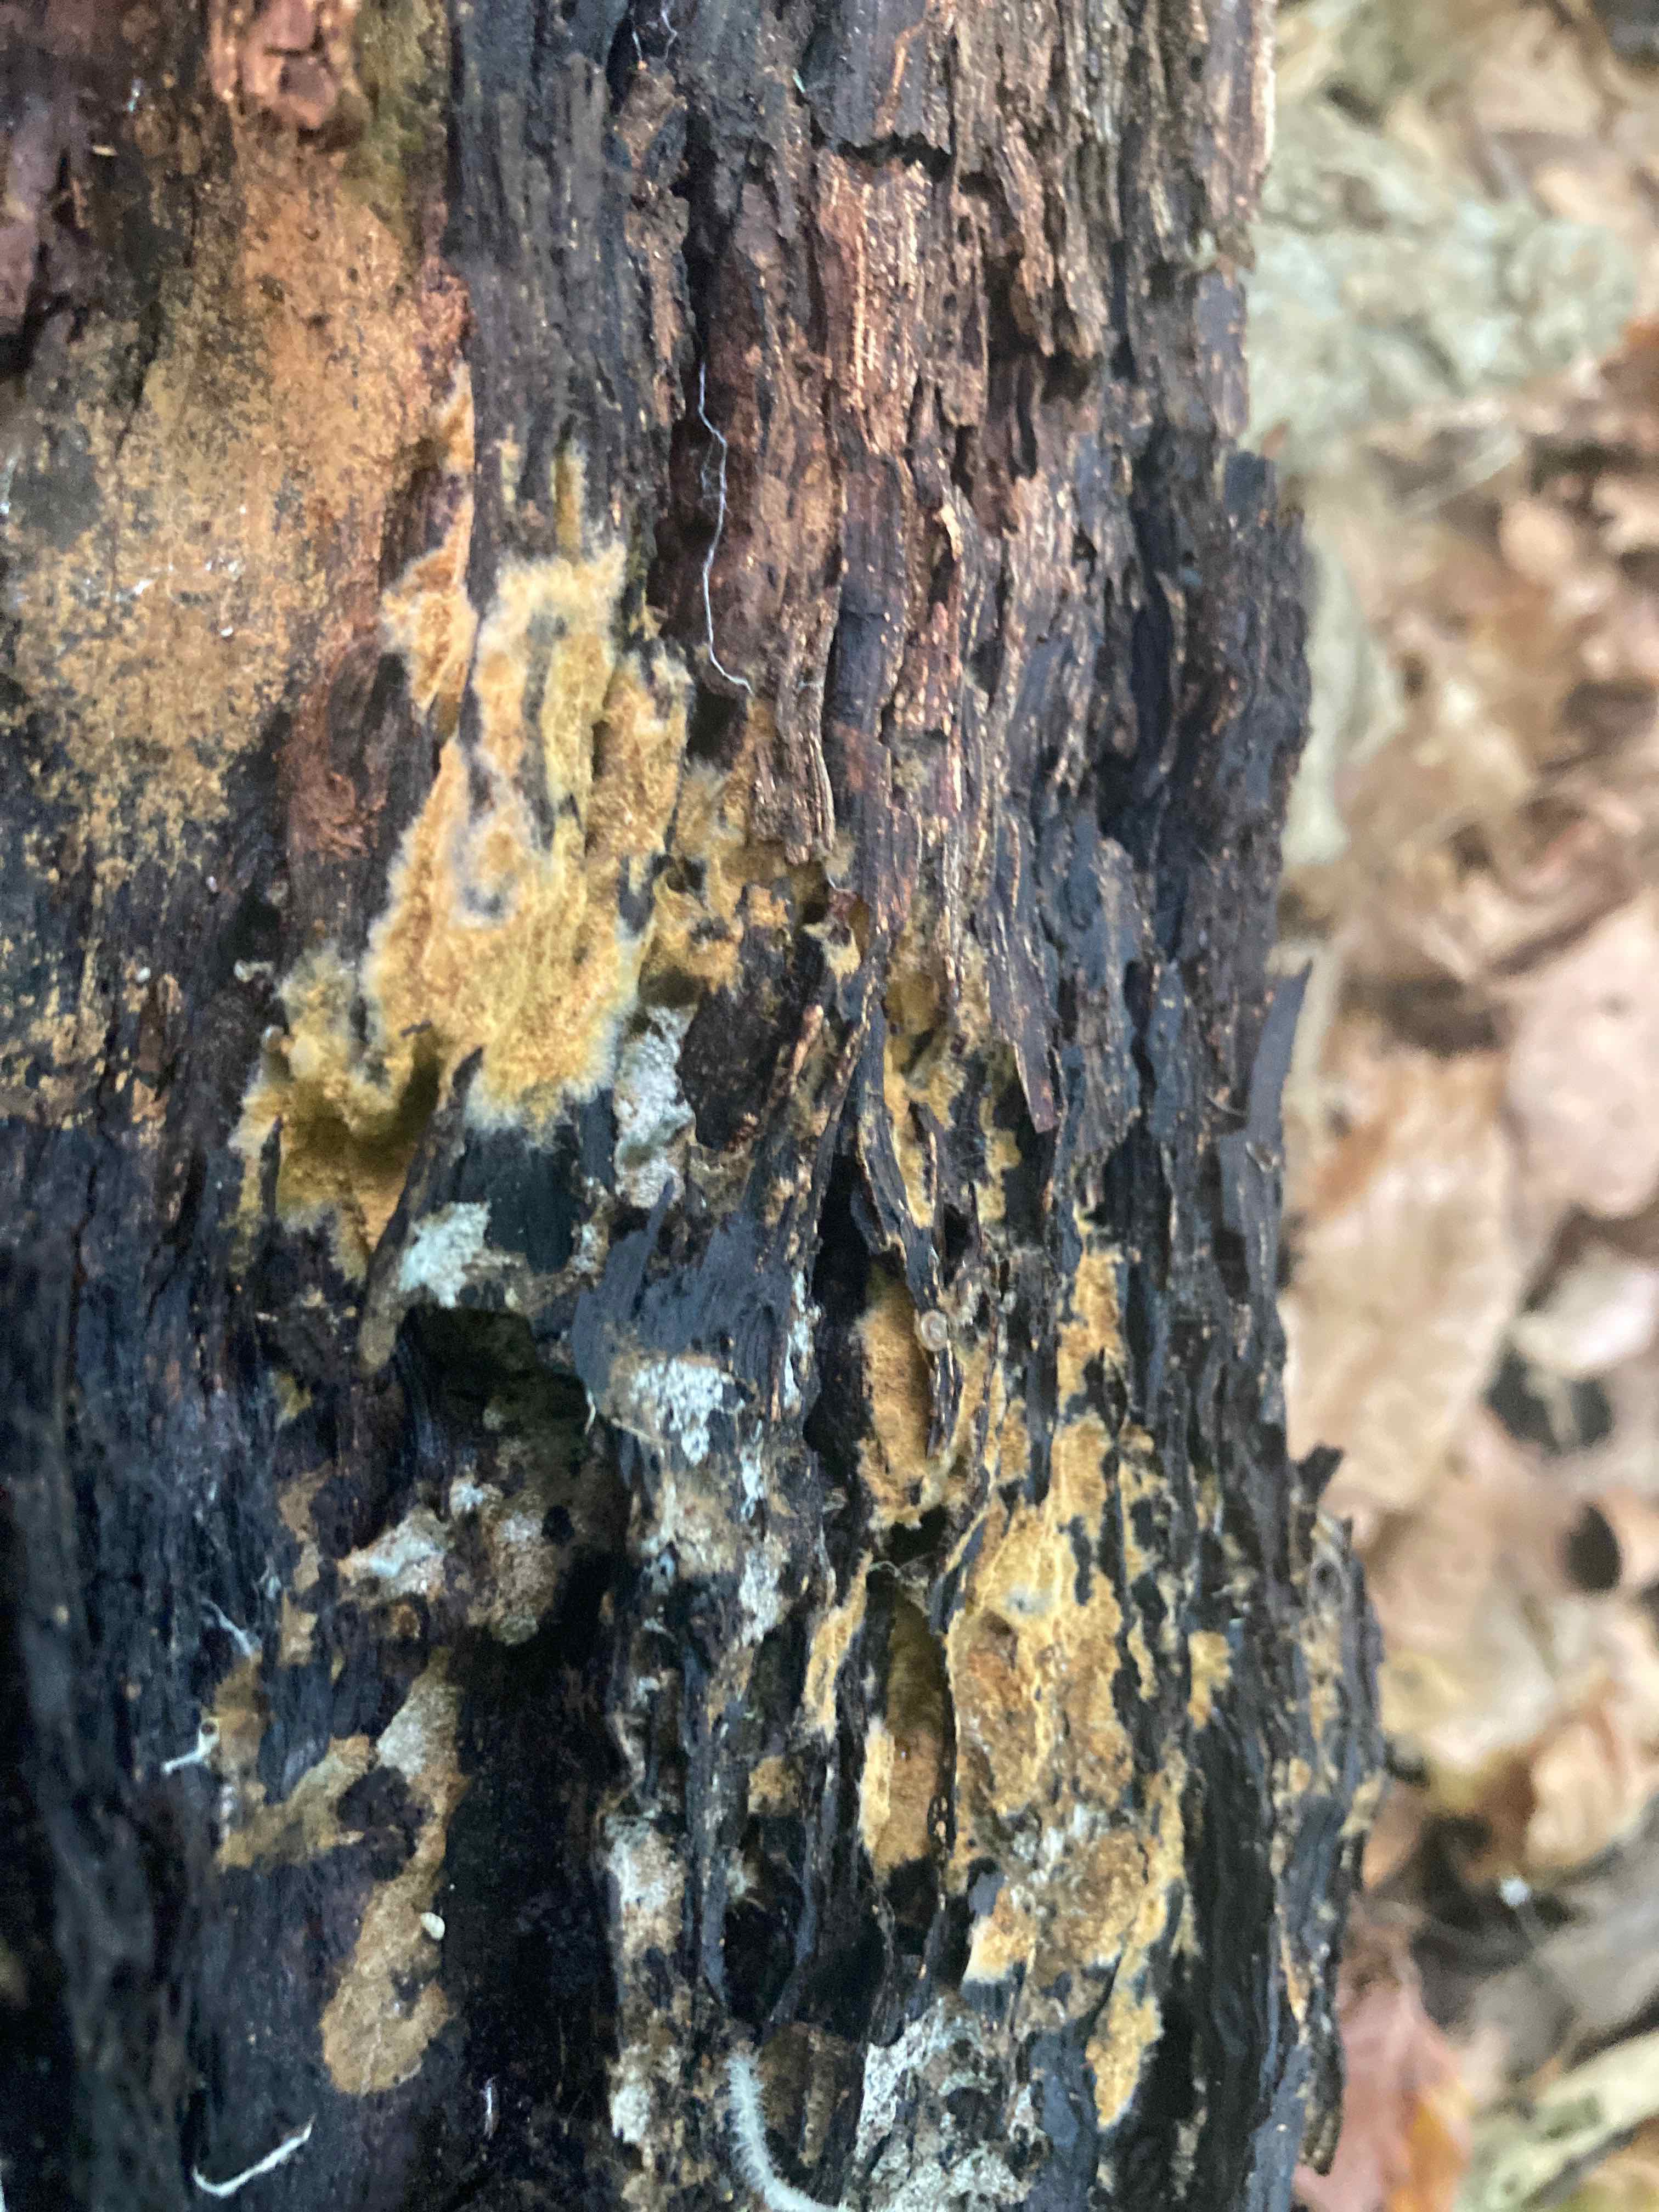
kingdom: Fungi
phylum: Basidiomycota
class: Agaricomycetes
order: Thelephorales
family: Thelephoraceae
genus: Tomentella
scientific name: Tomentella
